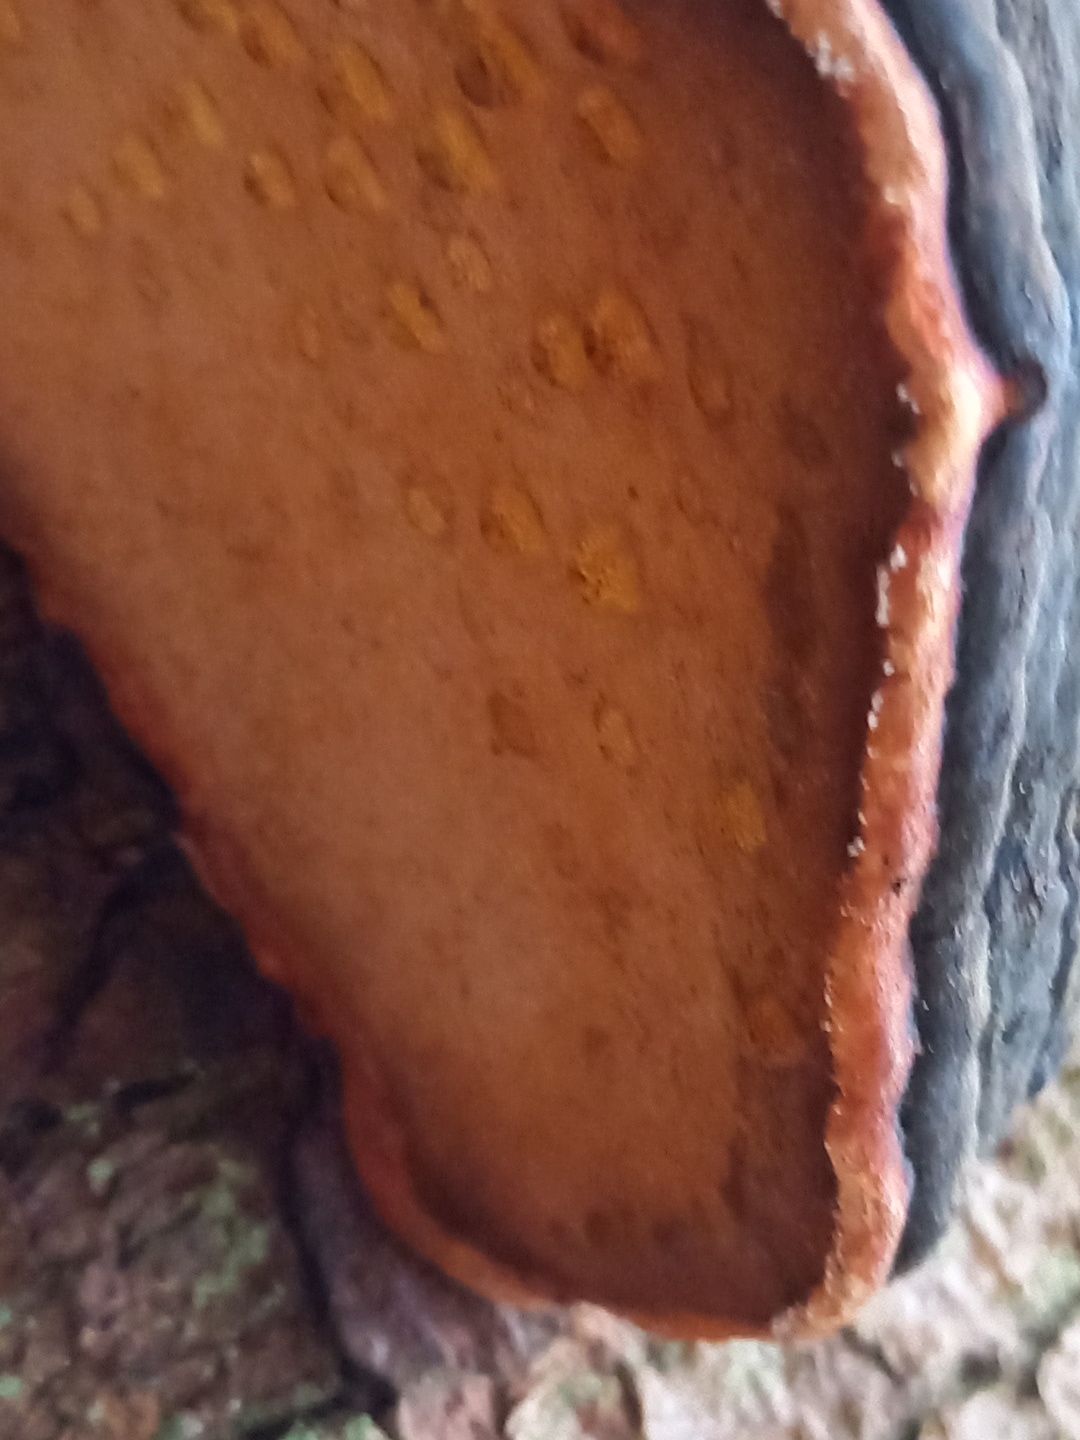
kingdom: Fungi
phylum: Basidiomycota
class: Agaricomycetes
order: Polyporales
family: Fomitopsidaceae
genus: Fomitopsis
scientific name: Fomitopsis pinicola
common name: randbæltet hovporesvamp
